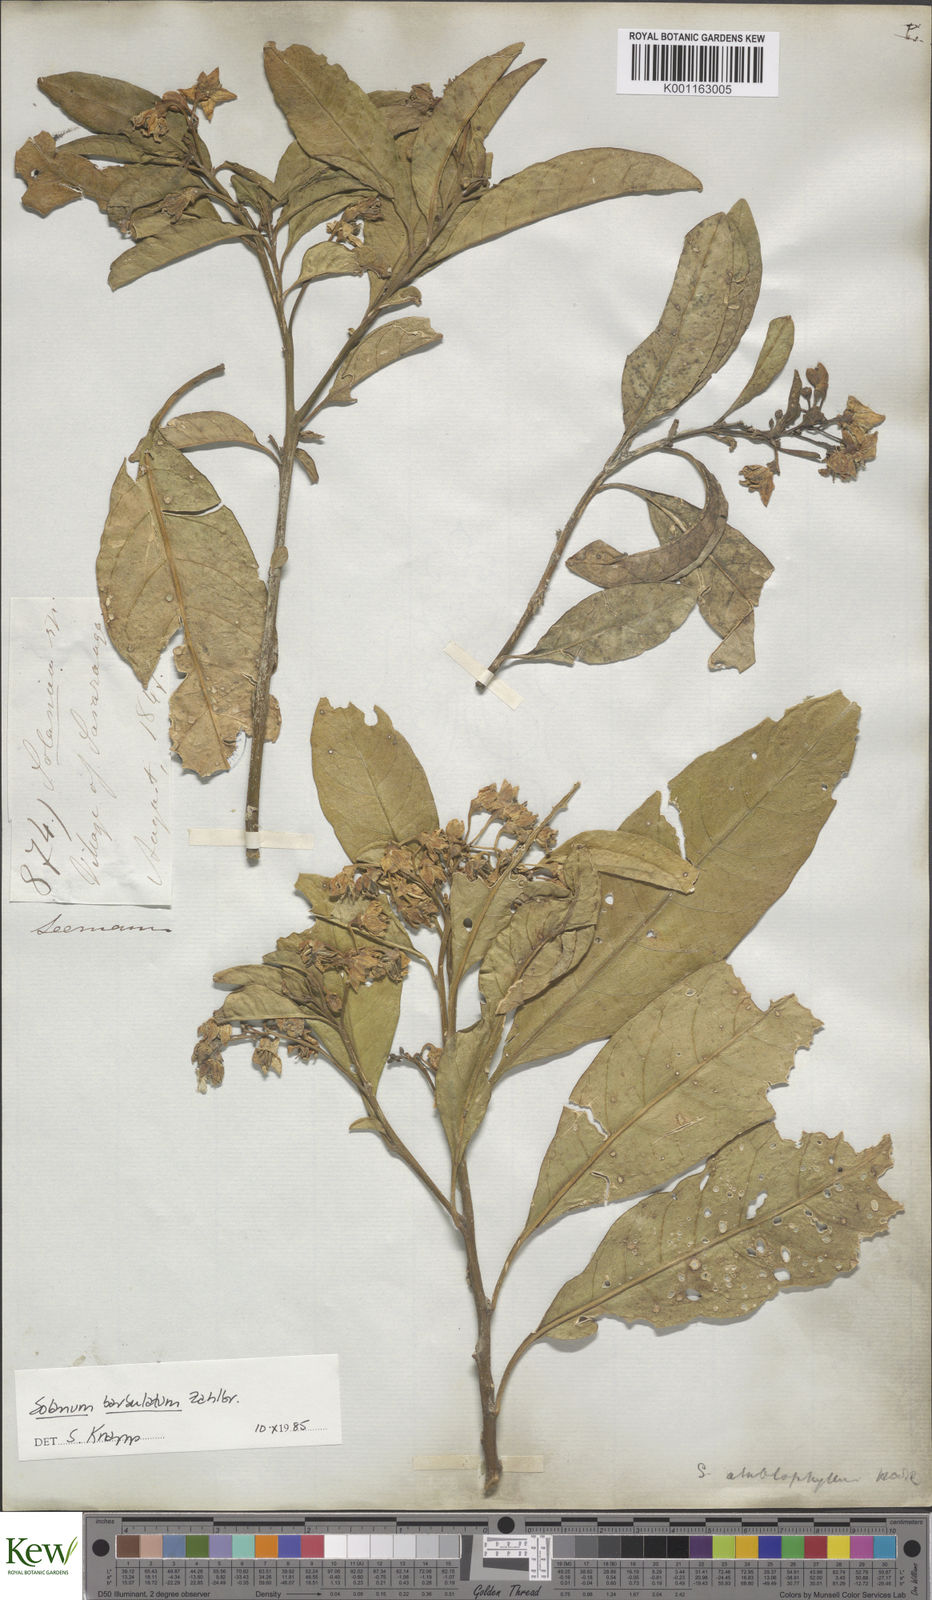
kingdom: Plantae
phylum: Tracheophyta
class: Magnoliopsida
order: Solanales
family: Solanaceae
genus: Solanum
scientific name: Solanum barbulatum
